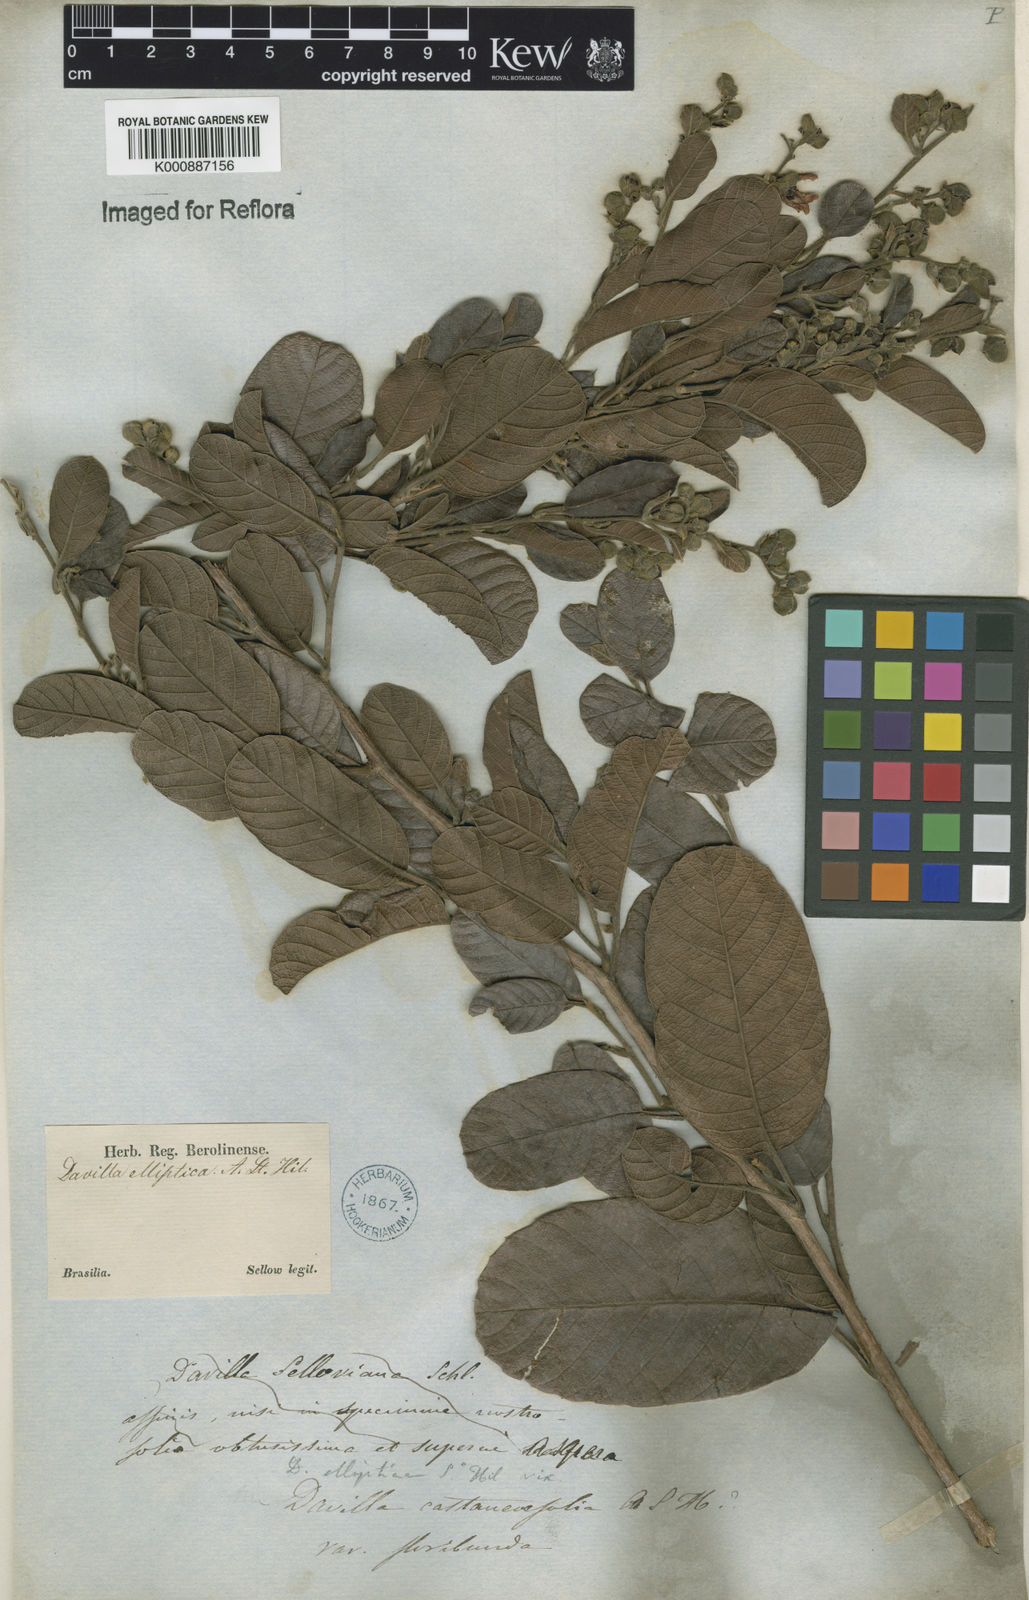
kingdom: Plantae
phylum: Tracheophyta
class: Magnoliopsida
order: Dilleniales
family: Dilleniaceae
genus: Davilla
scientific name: Davilla elliptica
